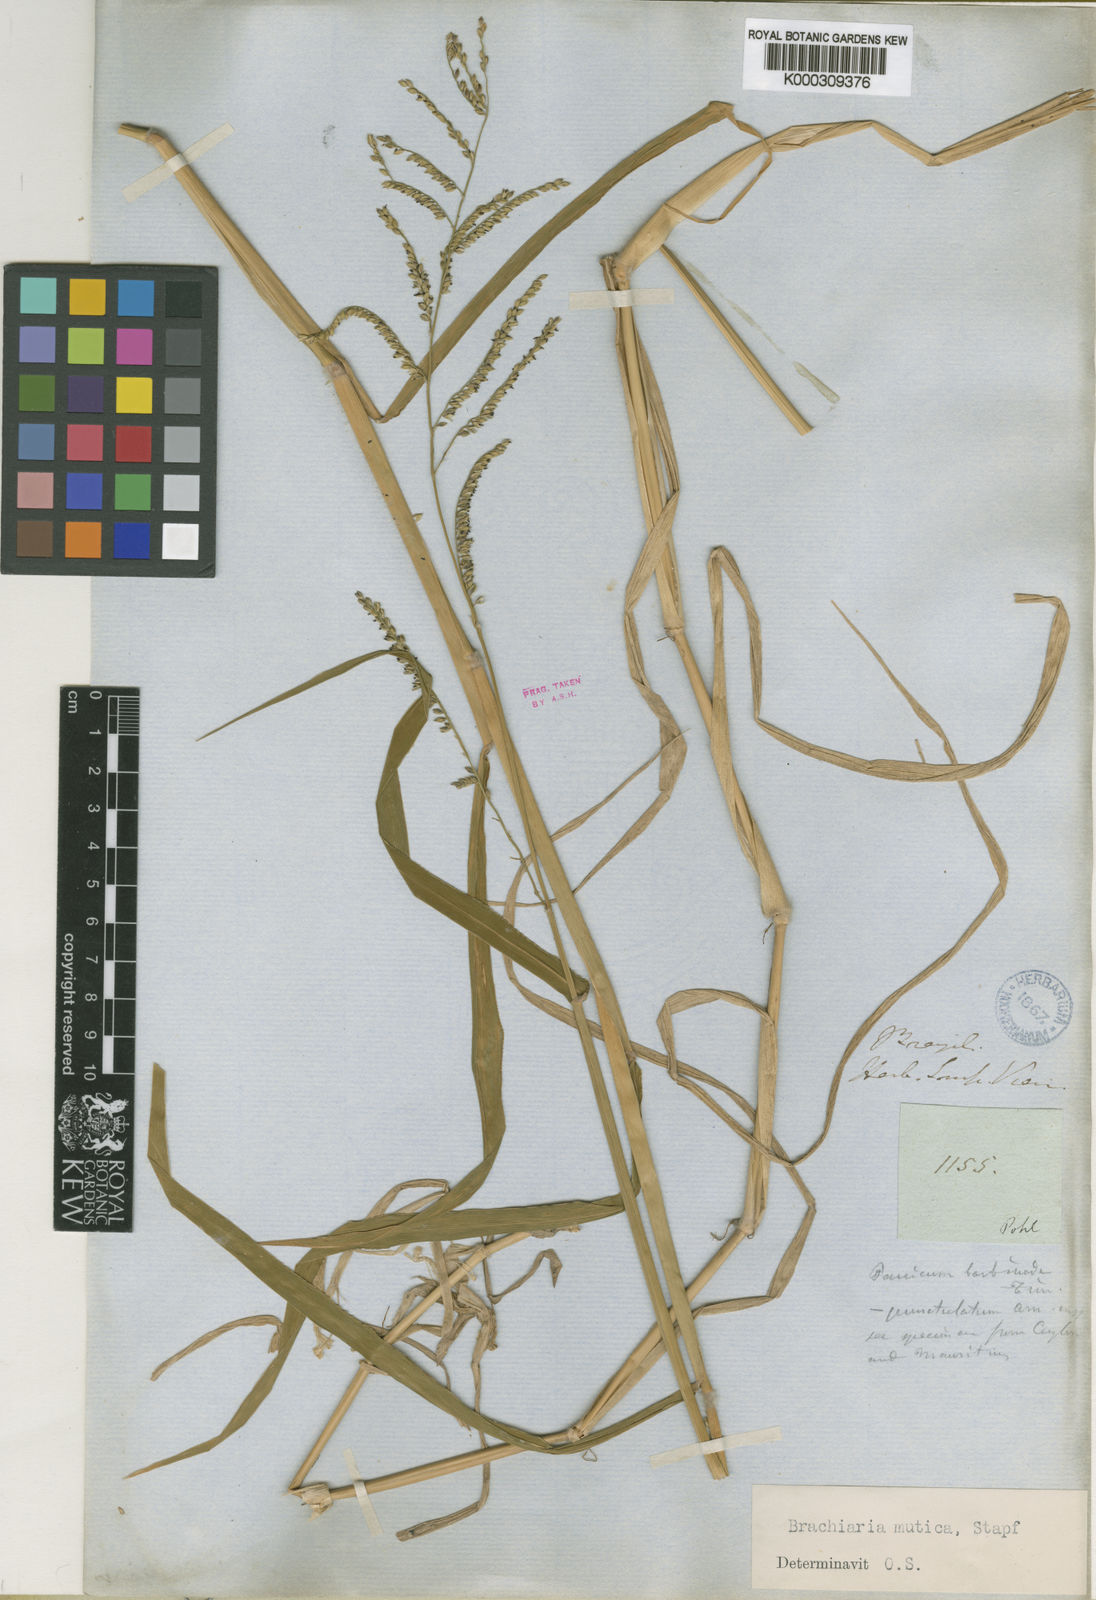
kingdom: Plantae
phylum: Tracheophyta
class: Liliopsida
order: Poales
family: Poaceae
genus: Urochloa
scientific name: Urochloa mutica
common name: Para grass
